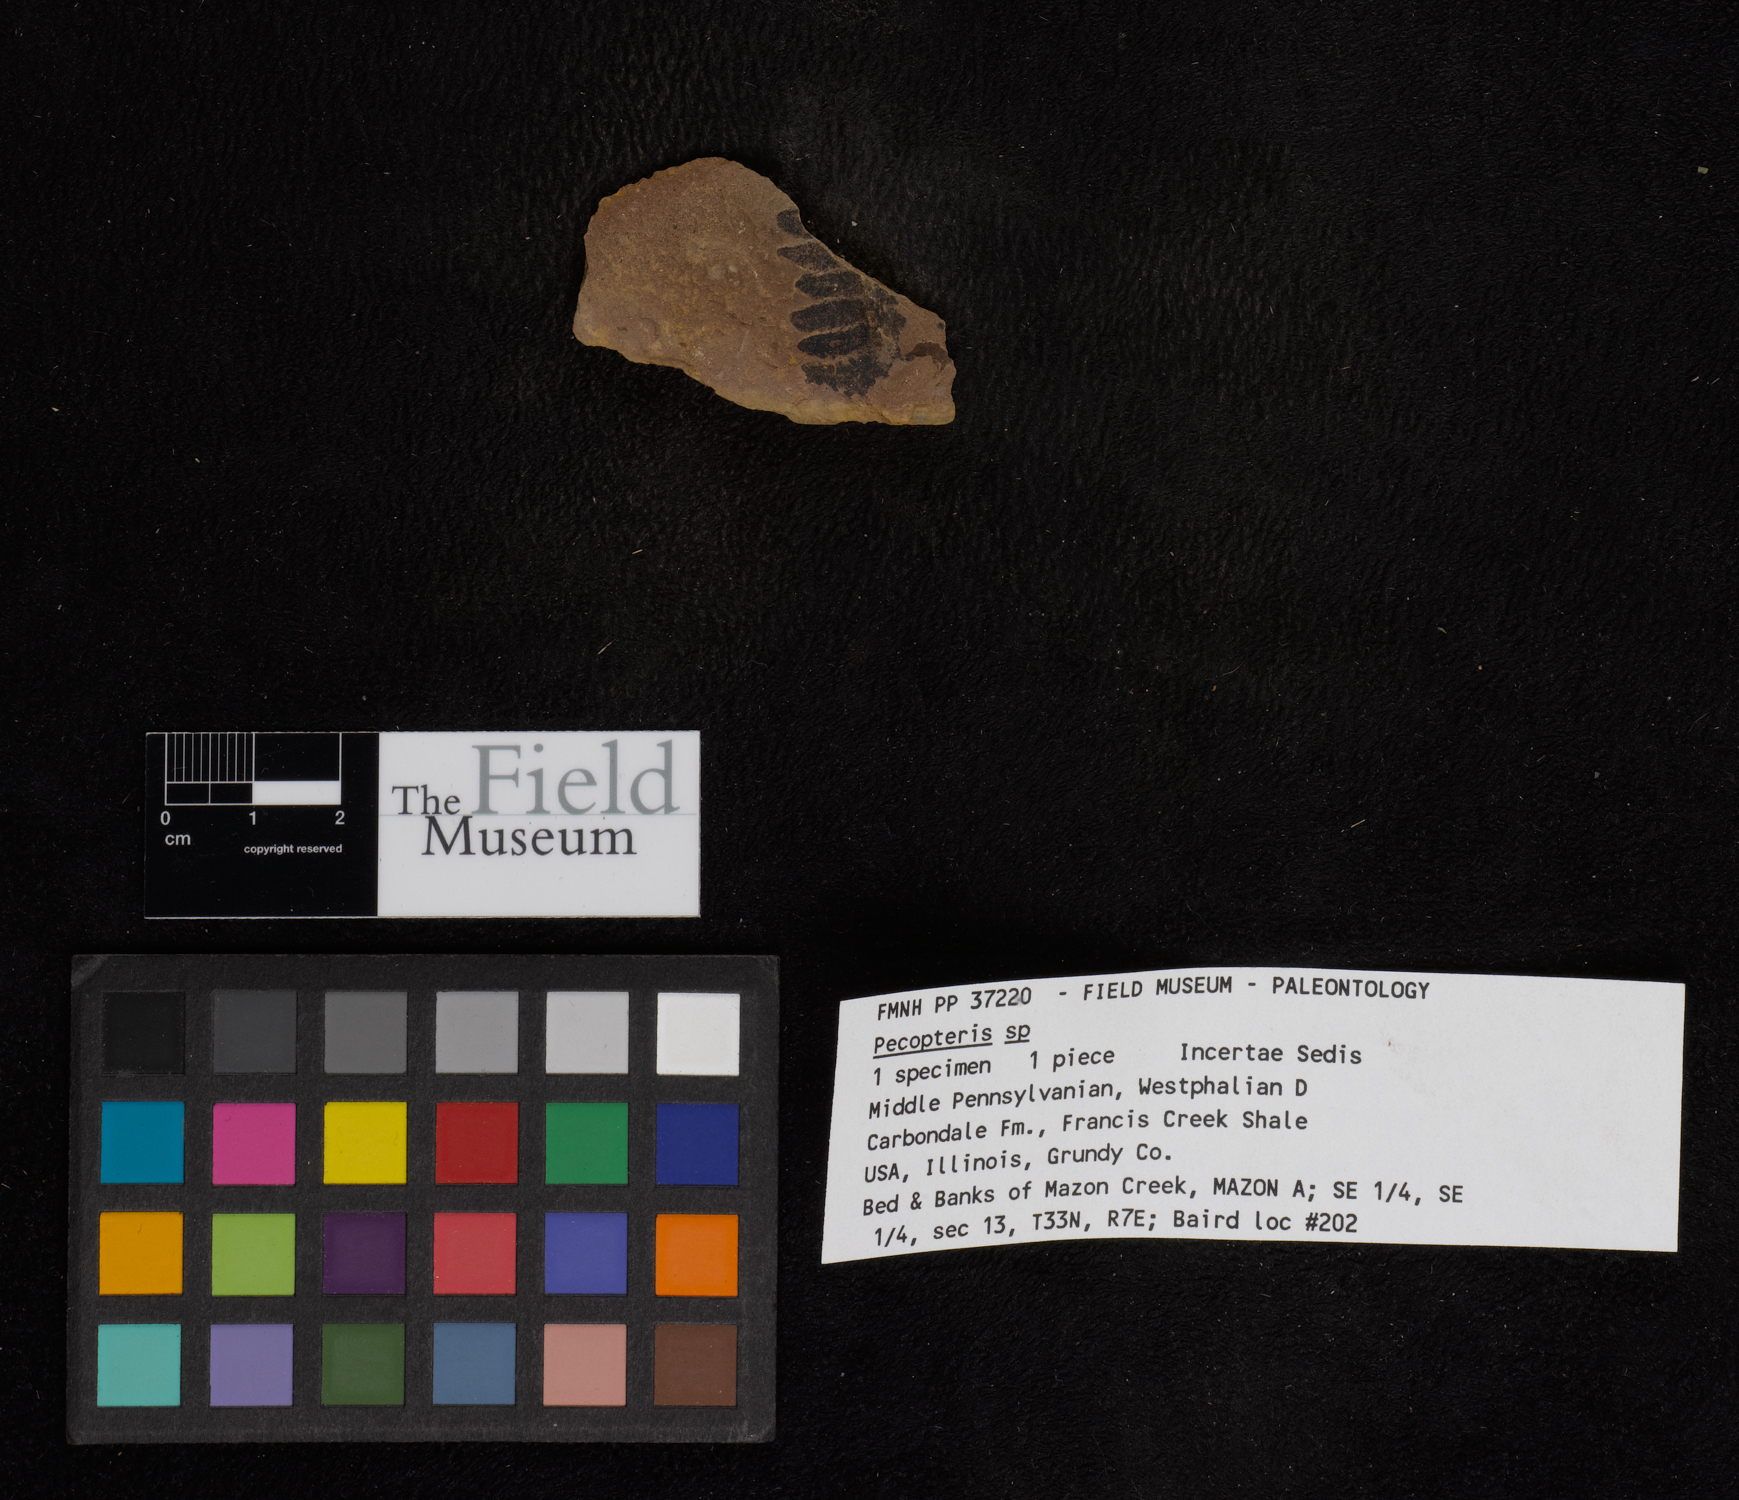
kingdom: Plantae
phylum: Tracheophyta
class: Polypodiopsida
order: Marattiales
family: Asterothecaceae
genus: Pecopteris
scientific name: Pecopteris
